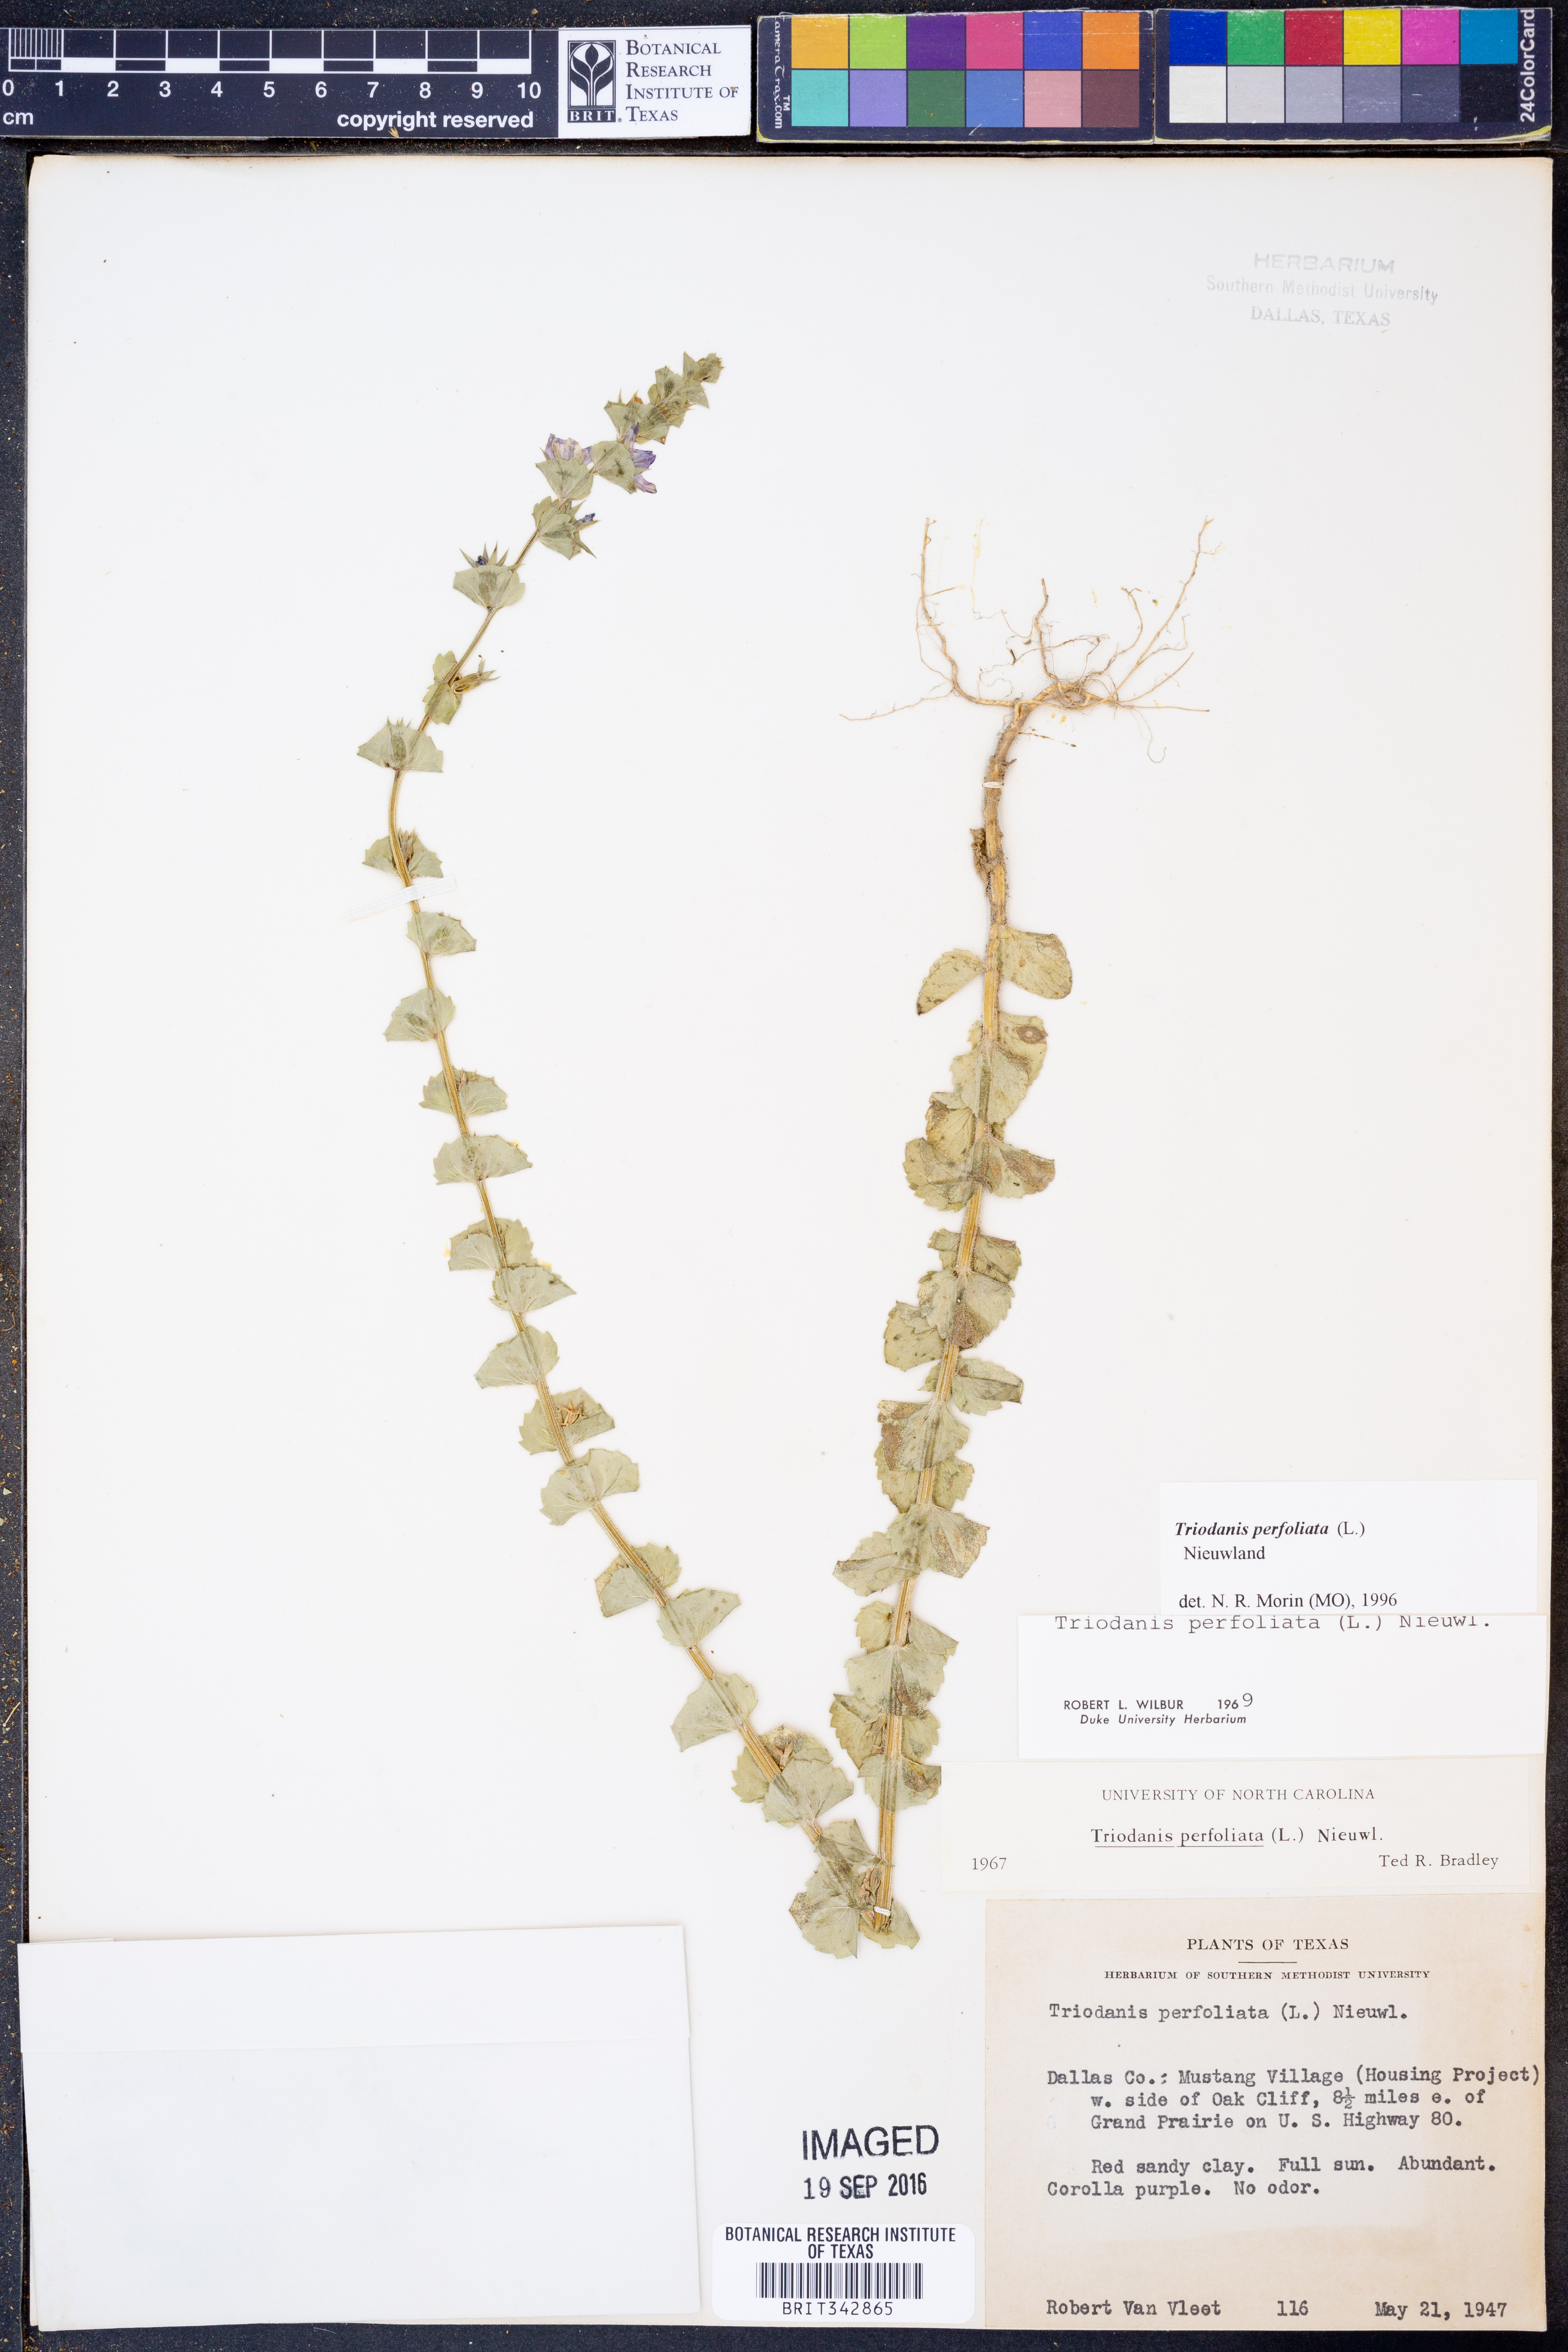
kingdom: Plantae
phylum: Tracheophyta
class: Magnoliopsida
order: Asterales
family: Campanulaceae
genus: Triodanis
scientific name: Triodanis perfoliata
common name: Clasping venus' looking-glass
